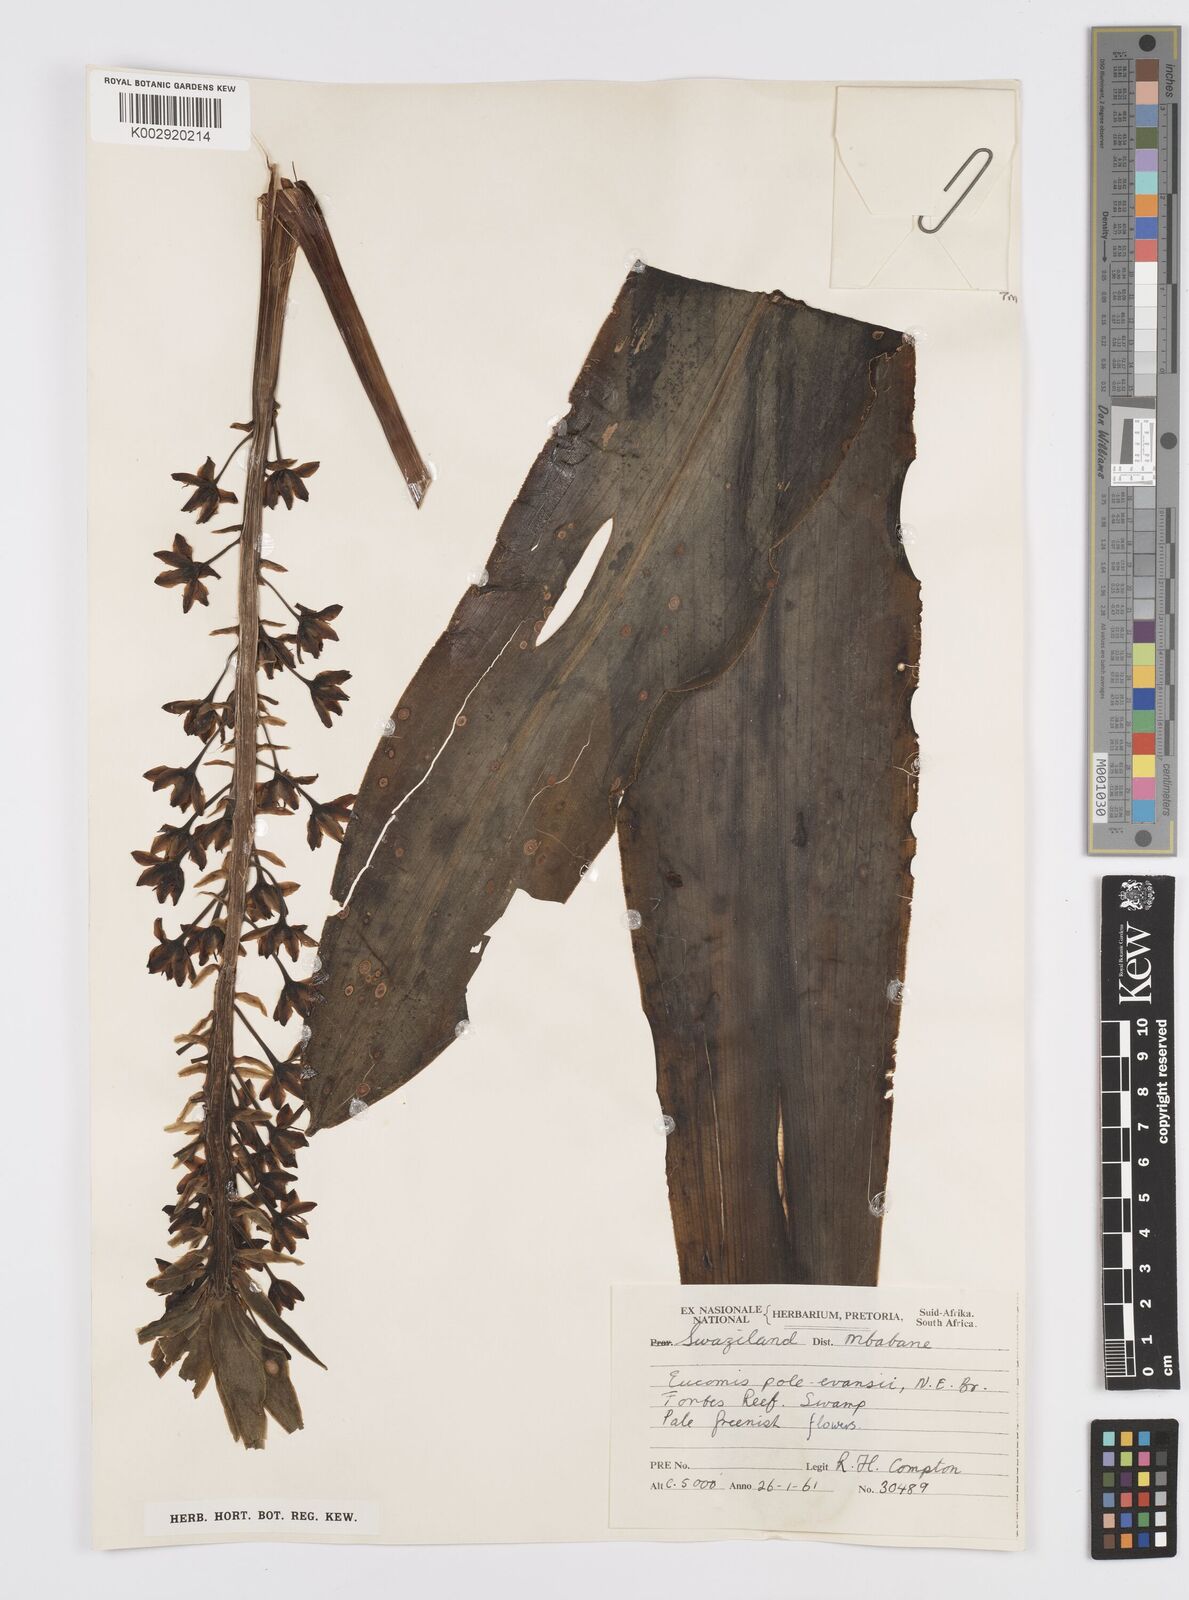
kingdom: Plantae
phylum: Tracheophyta
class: Liliopsida
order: Asparagales
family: Asparagaceae
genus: Eucomis
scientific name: Eucomis pallidiflora
